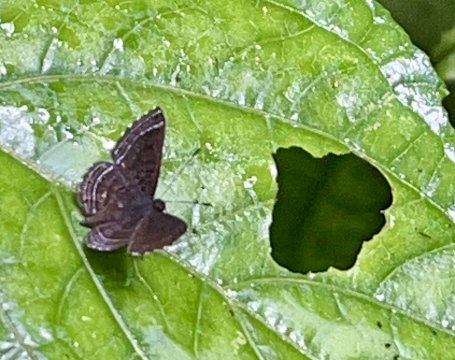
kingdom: Animalia
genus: Charis
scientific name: Charis anius
